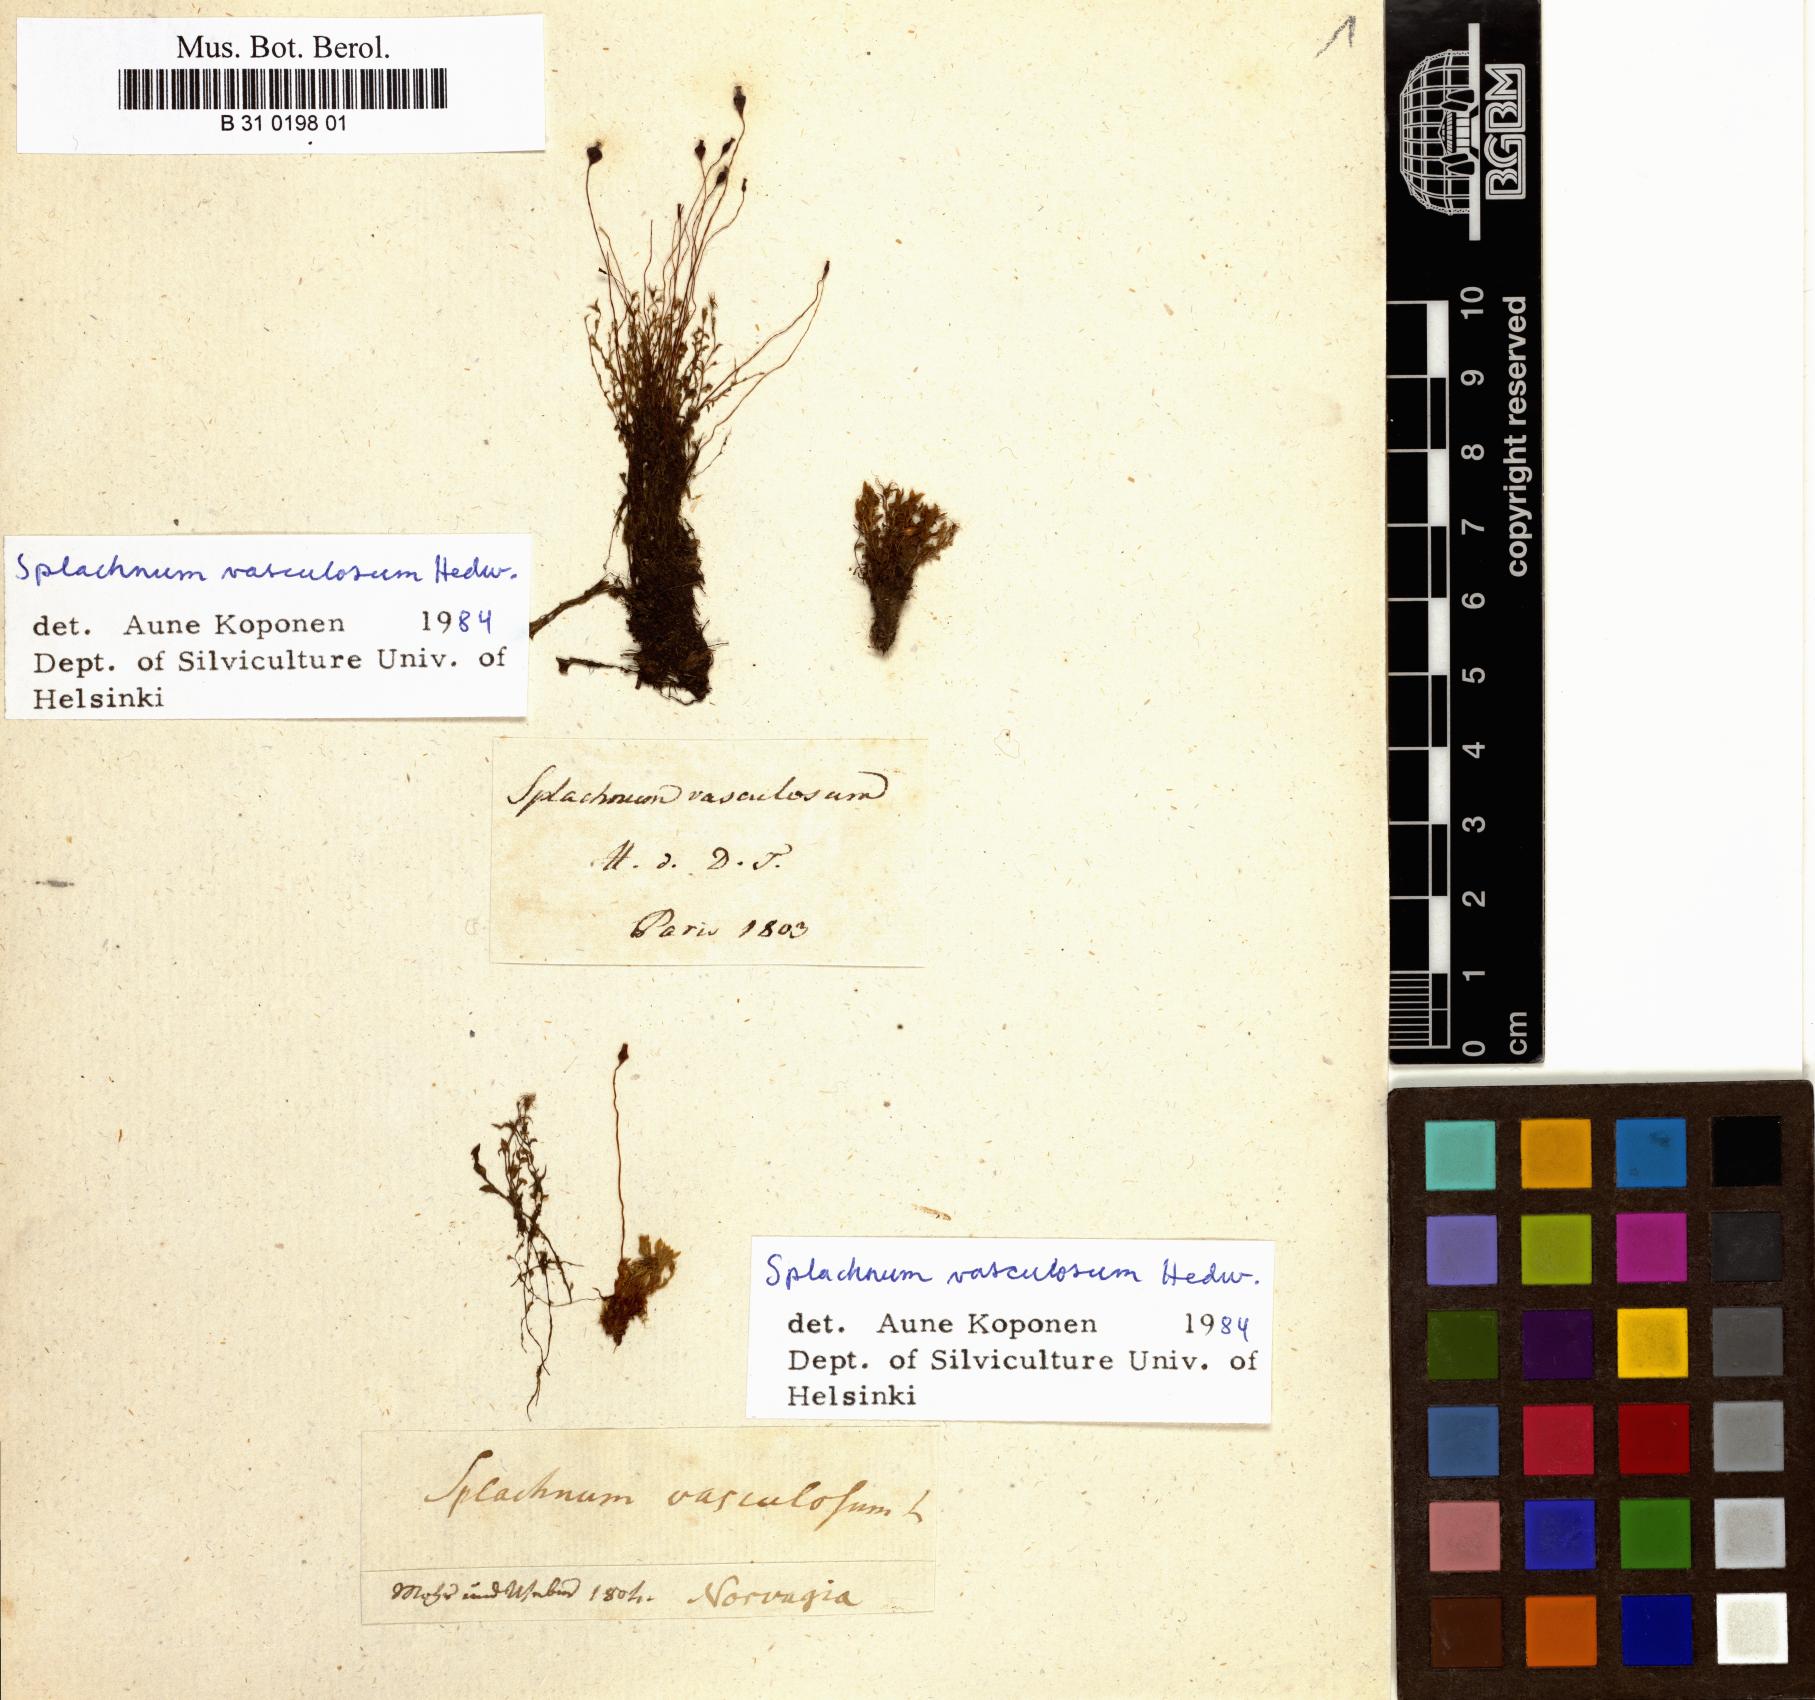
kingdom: Plantae
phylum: Bryophyta
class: Bryopsida
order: Splachnales
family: Splachnaceae
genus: Splachnum
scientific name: Splachnum vasculosum
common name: Rugged dung moss
